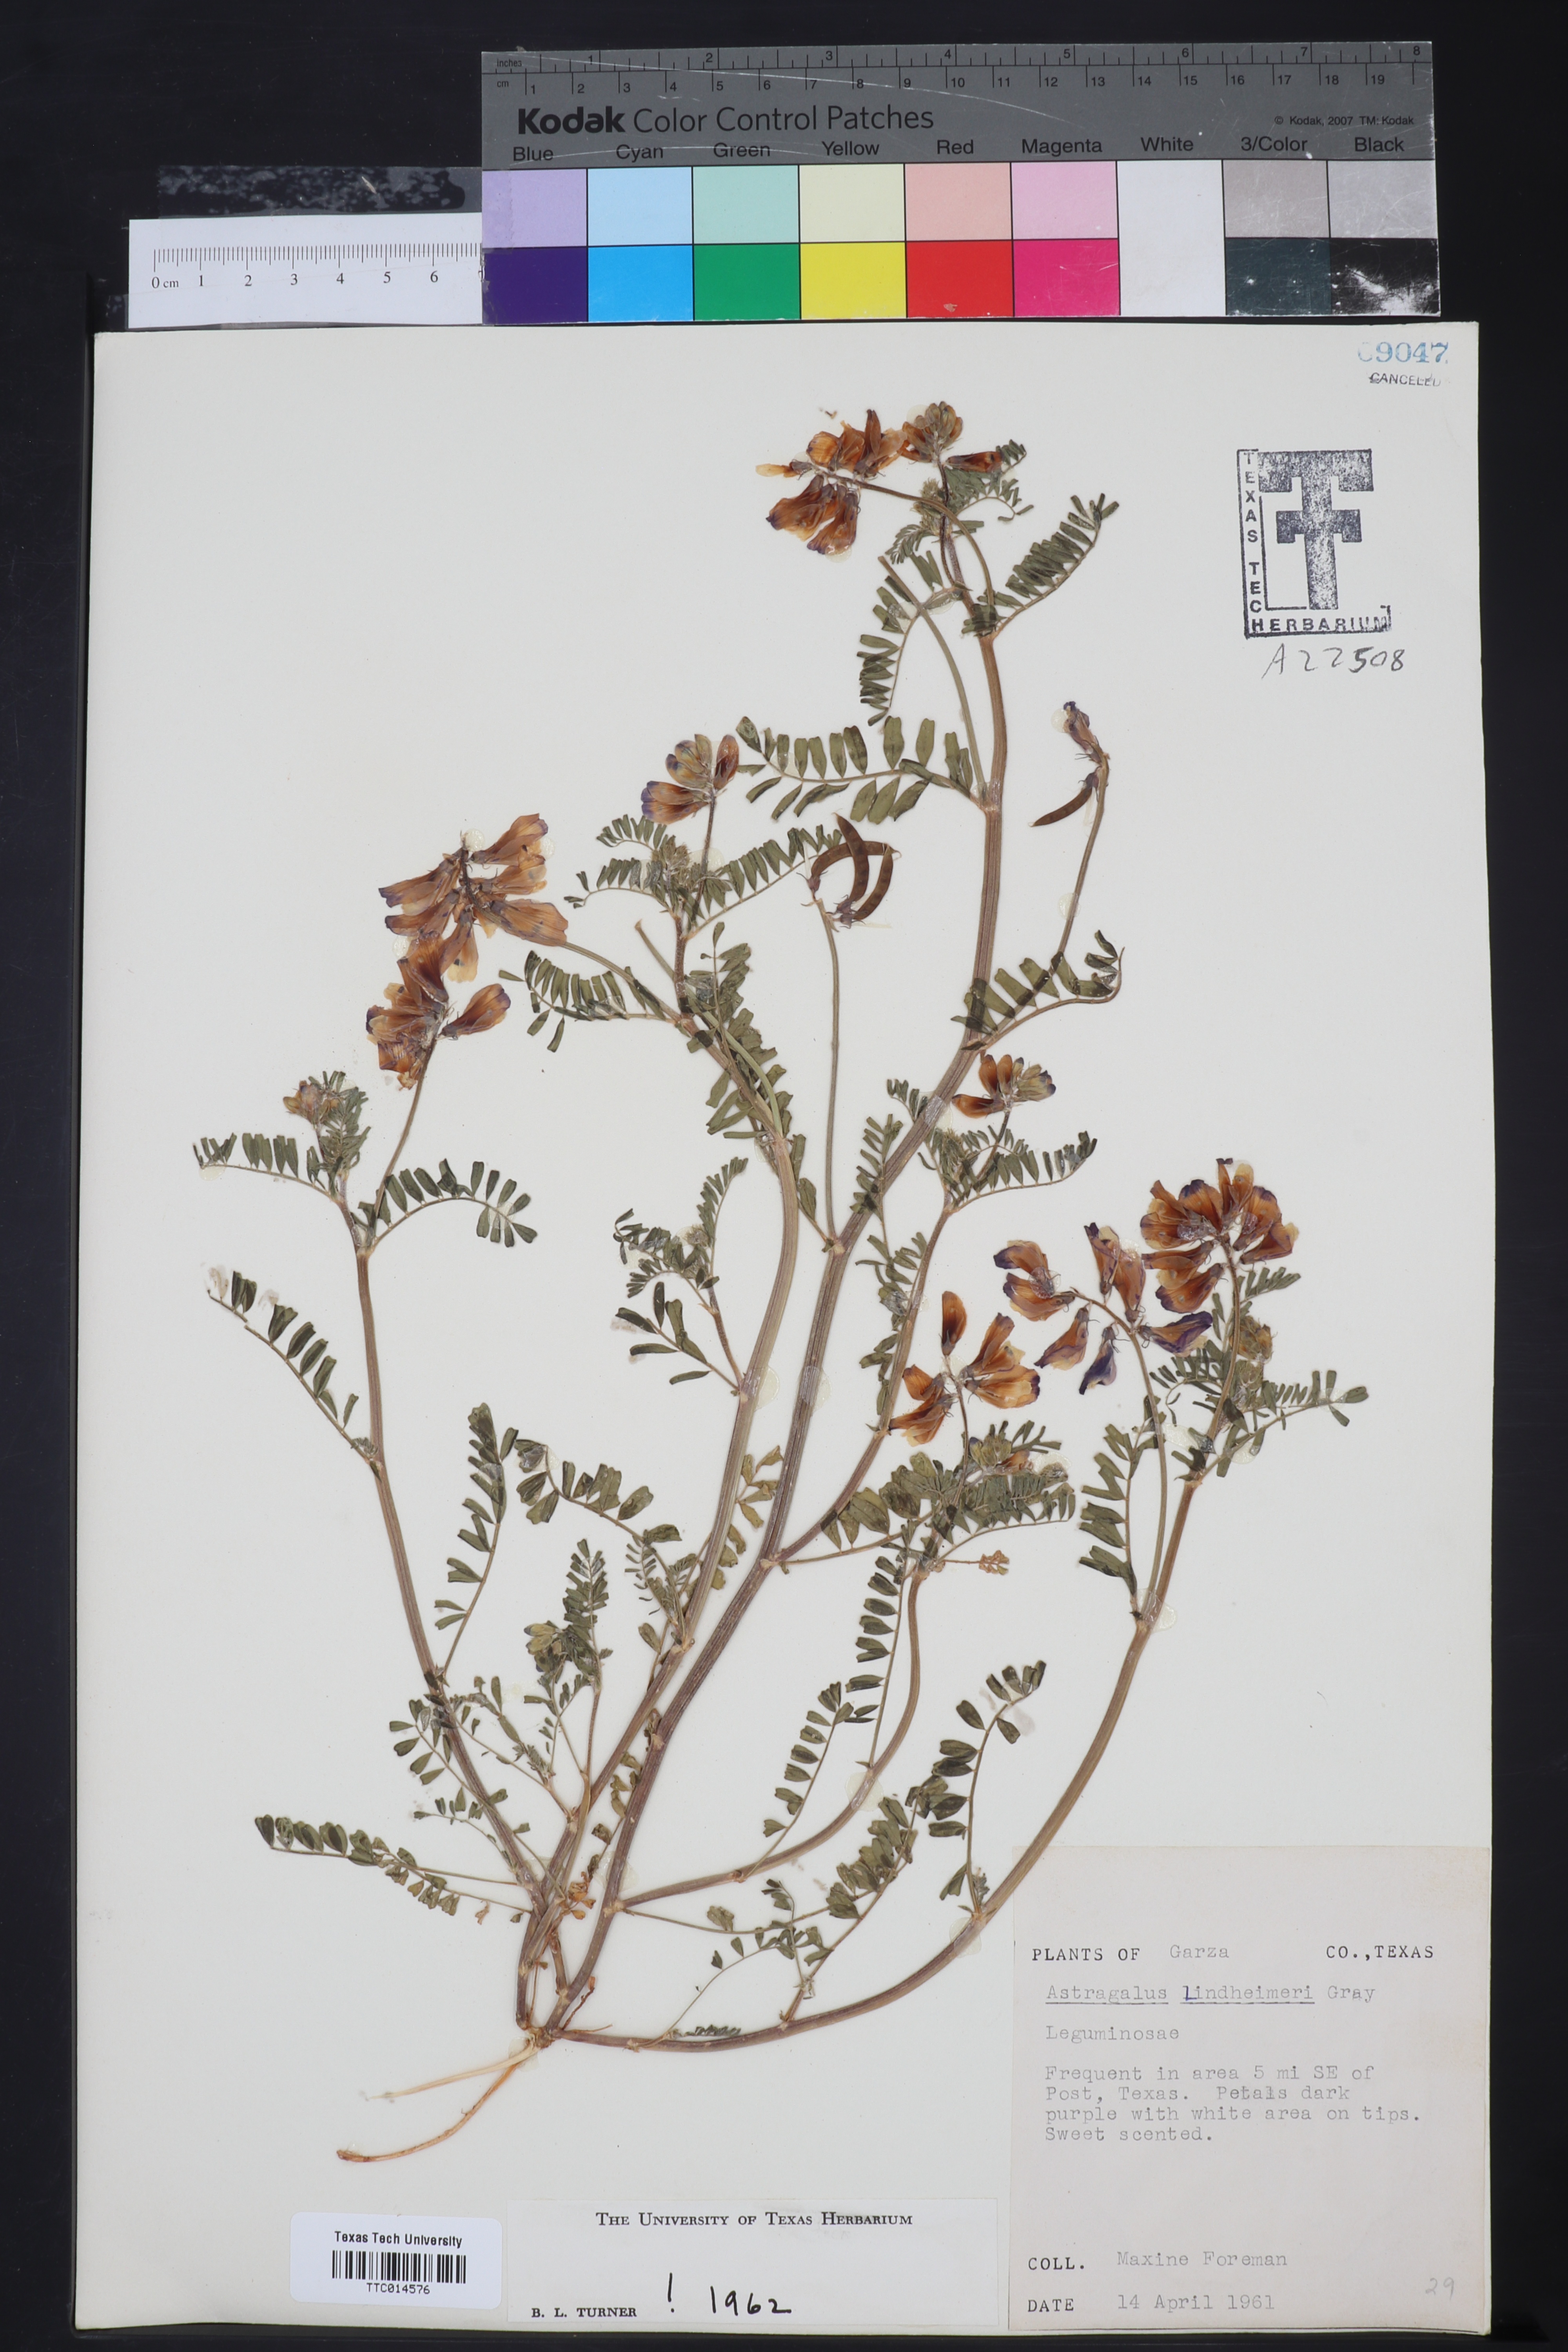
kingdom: Plantae
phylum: Tracheophyta
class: Magnoliopsida
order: Fabales
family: Fabaceae
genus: Astragalus
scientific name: Astragalus
